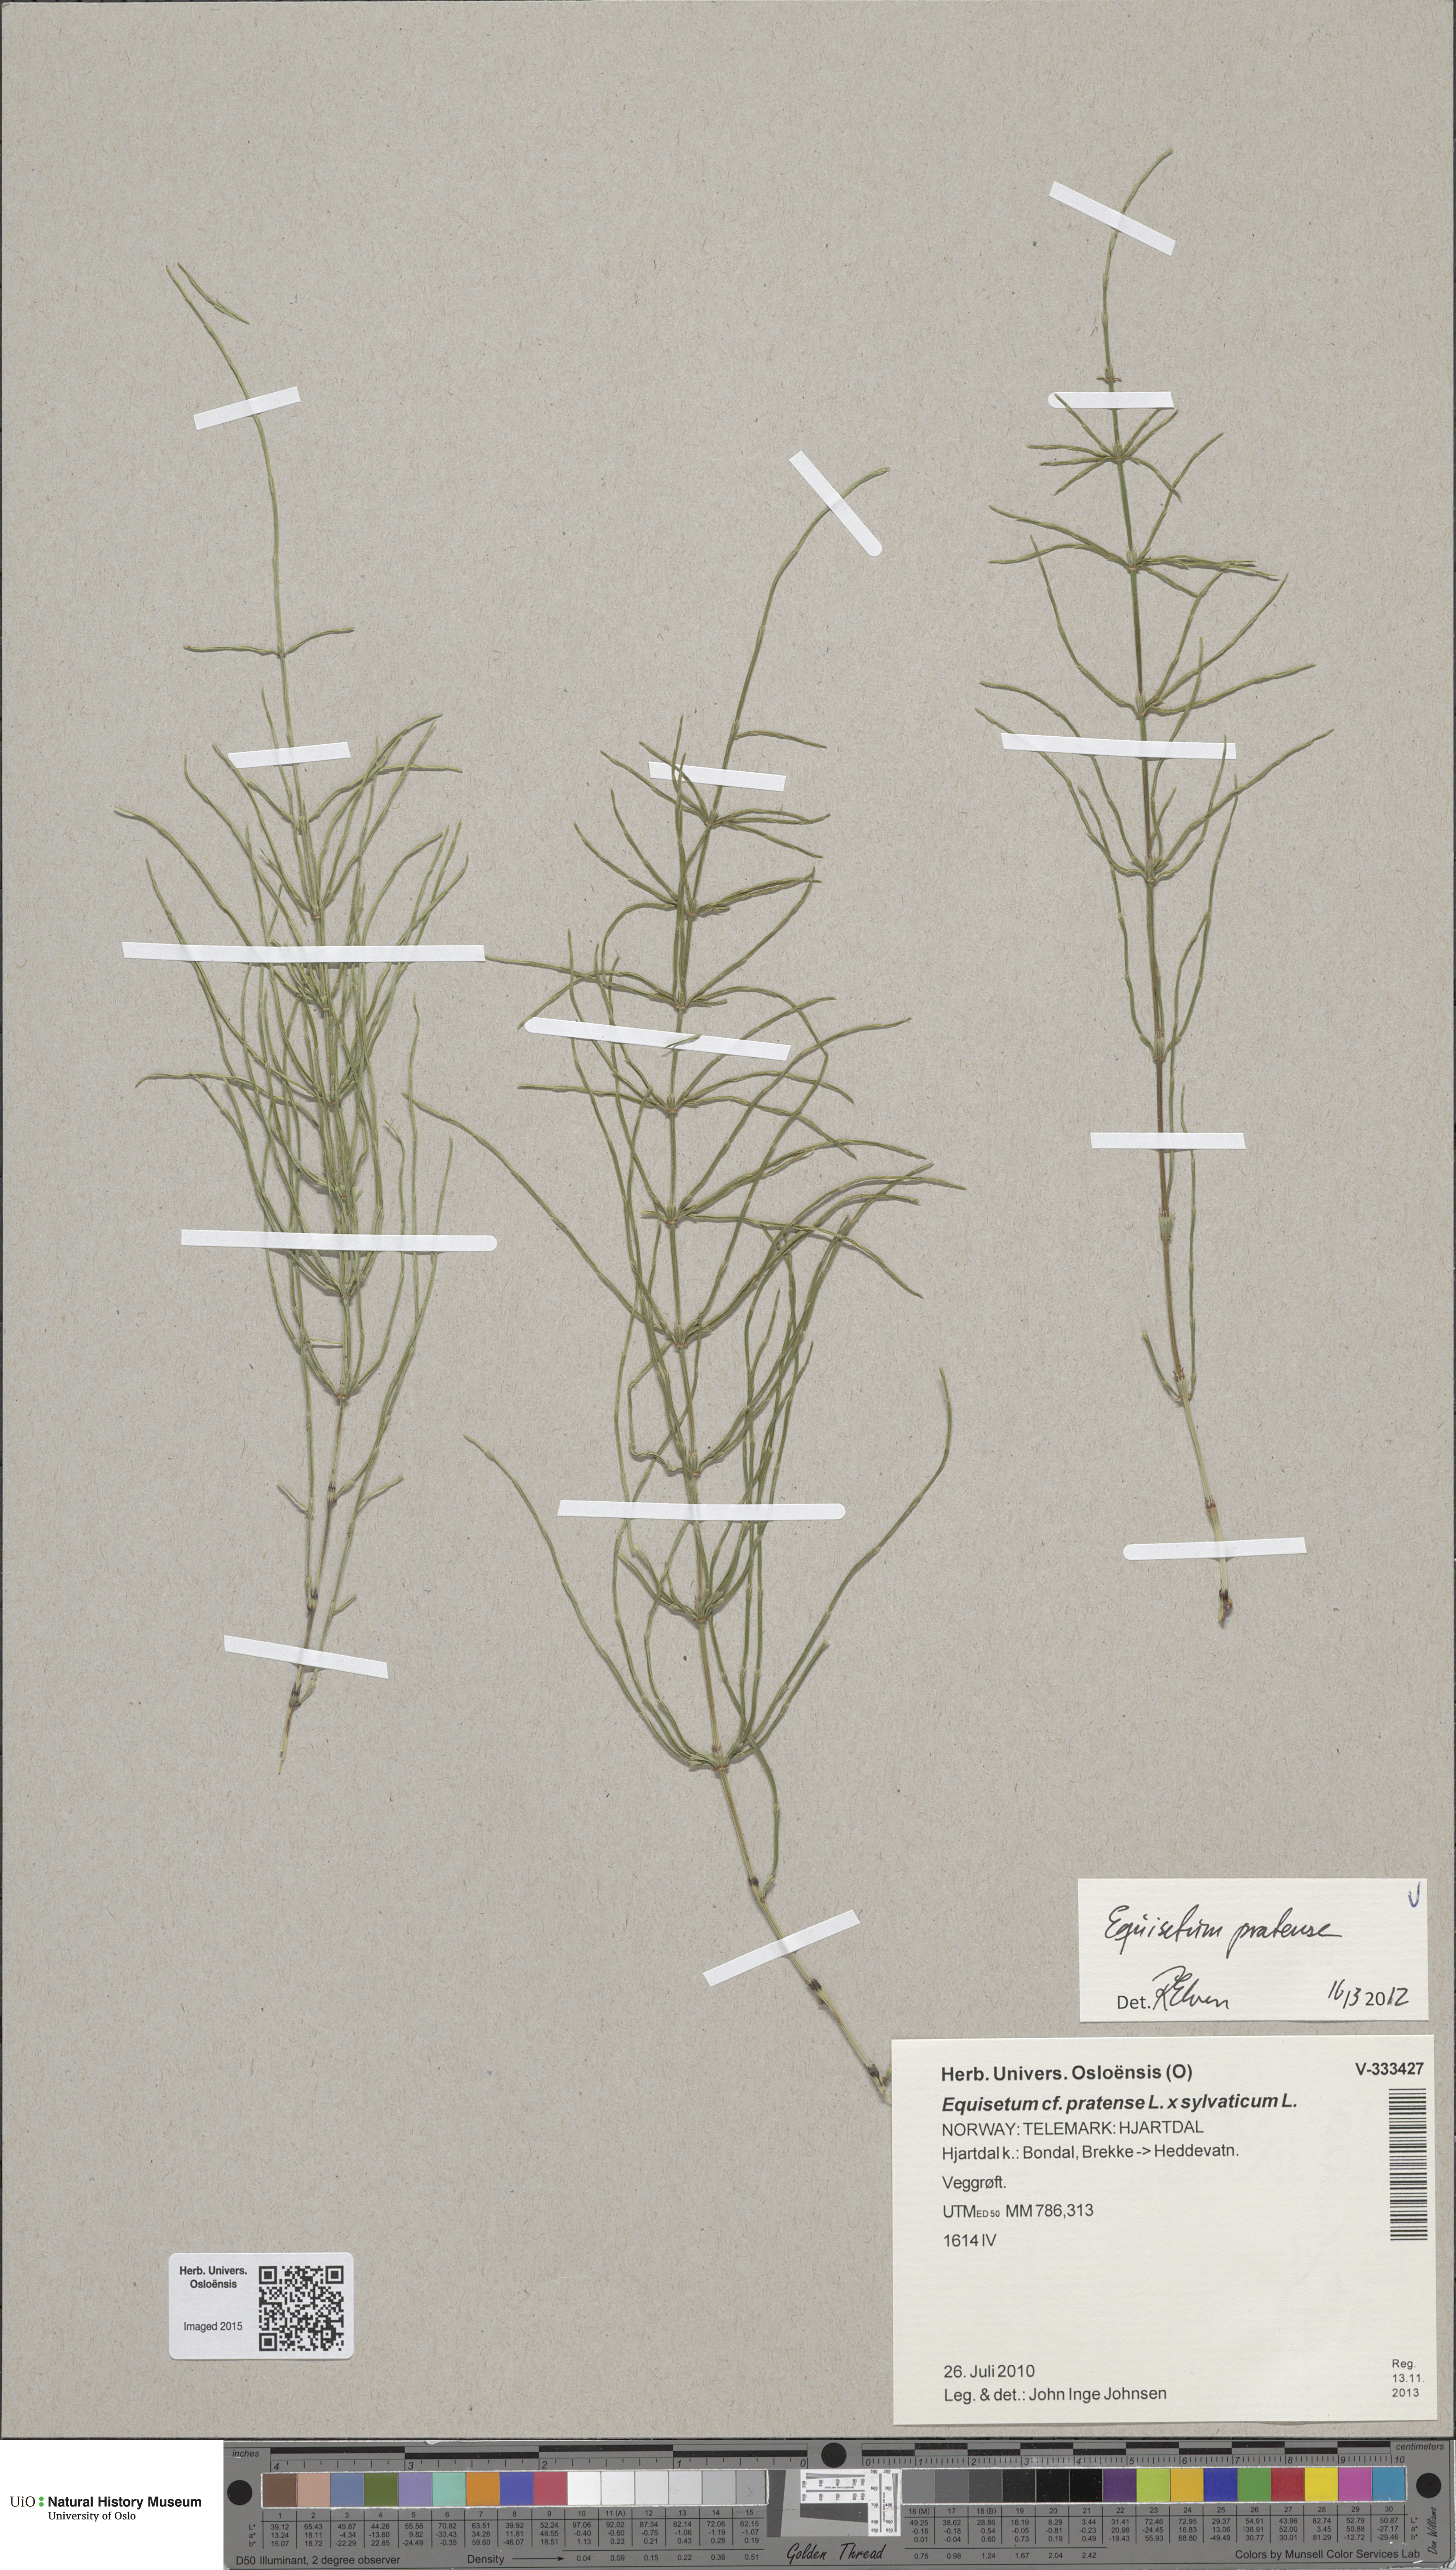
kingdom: Plantae
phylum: Tracheophyta
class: Polypodiopsida
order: Equisetales
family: Equisetaceae
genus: Equisetum
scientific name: Equisetum pratense
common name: Meadow horsetail
